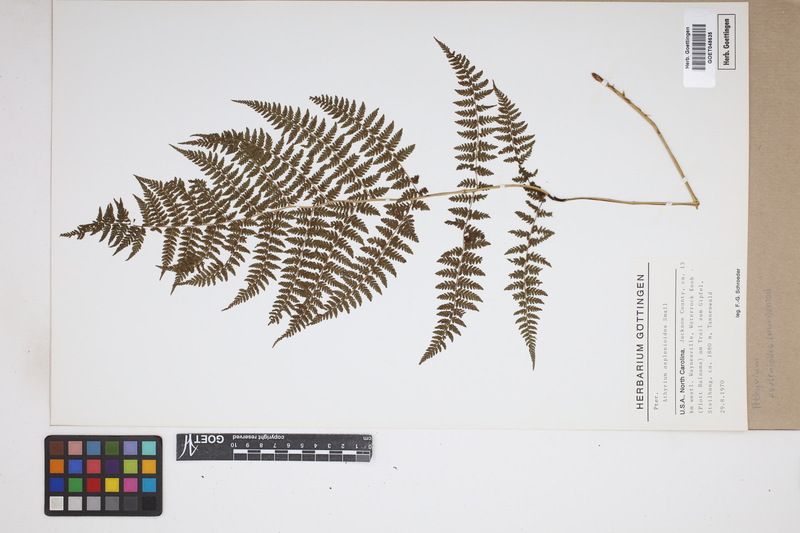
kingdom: Plantae
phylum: Tracheophyta
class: Polypodiopsida
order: Polypodiales
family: Athyriaceae
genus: Athyrium
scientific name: Athyrium asplenioides
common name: Southern lady fern
